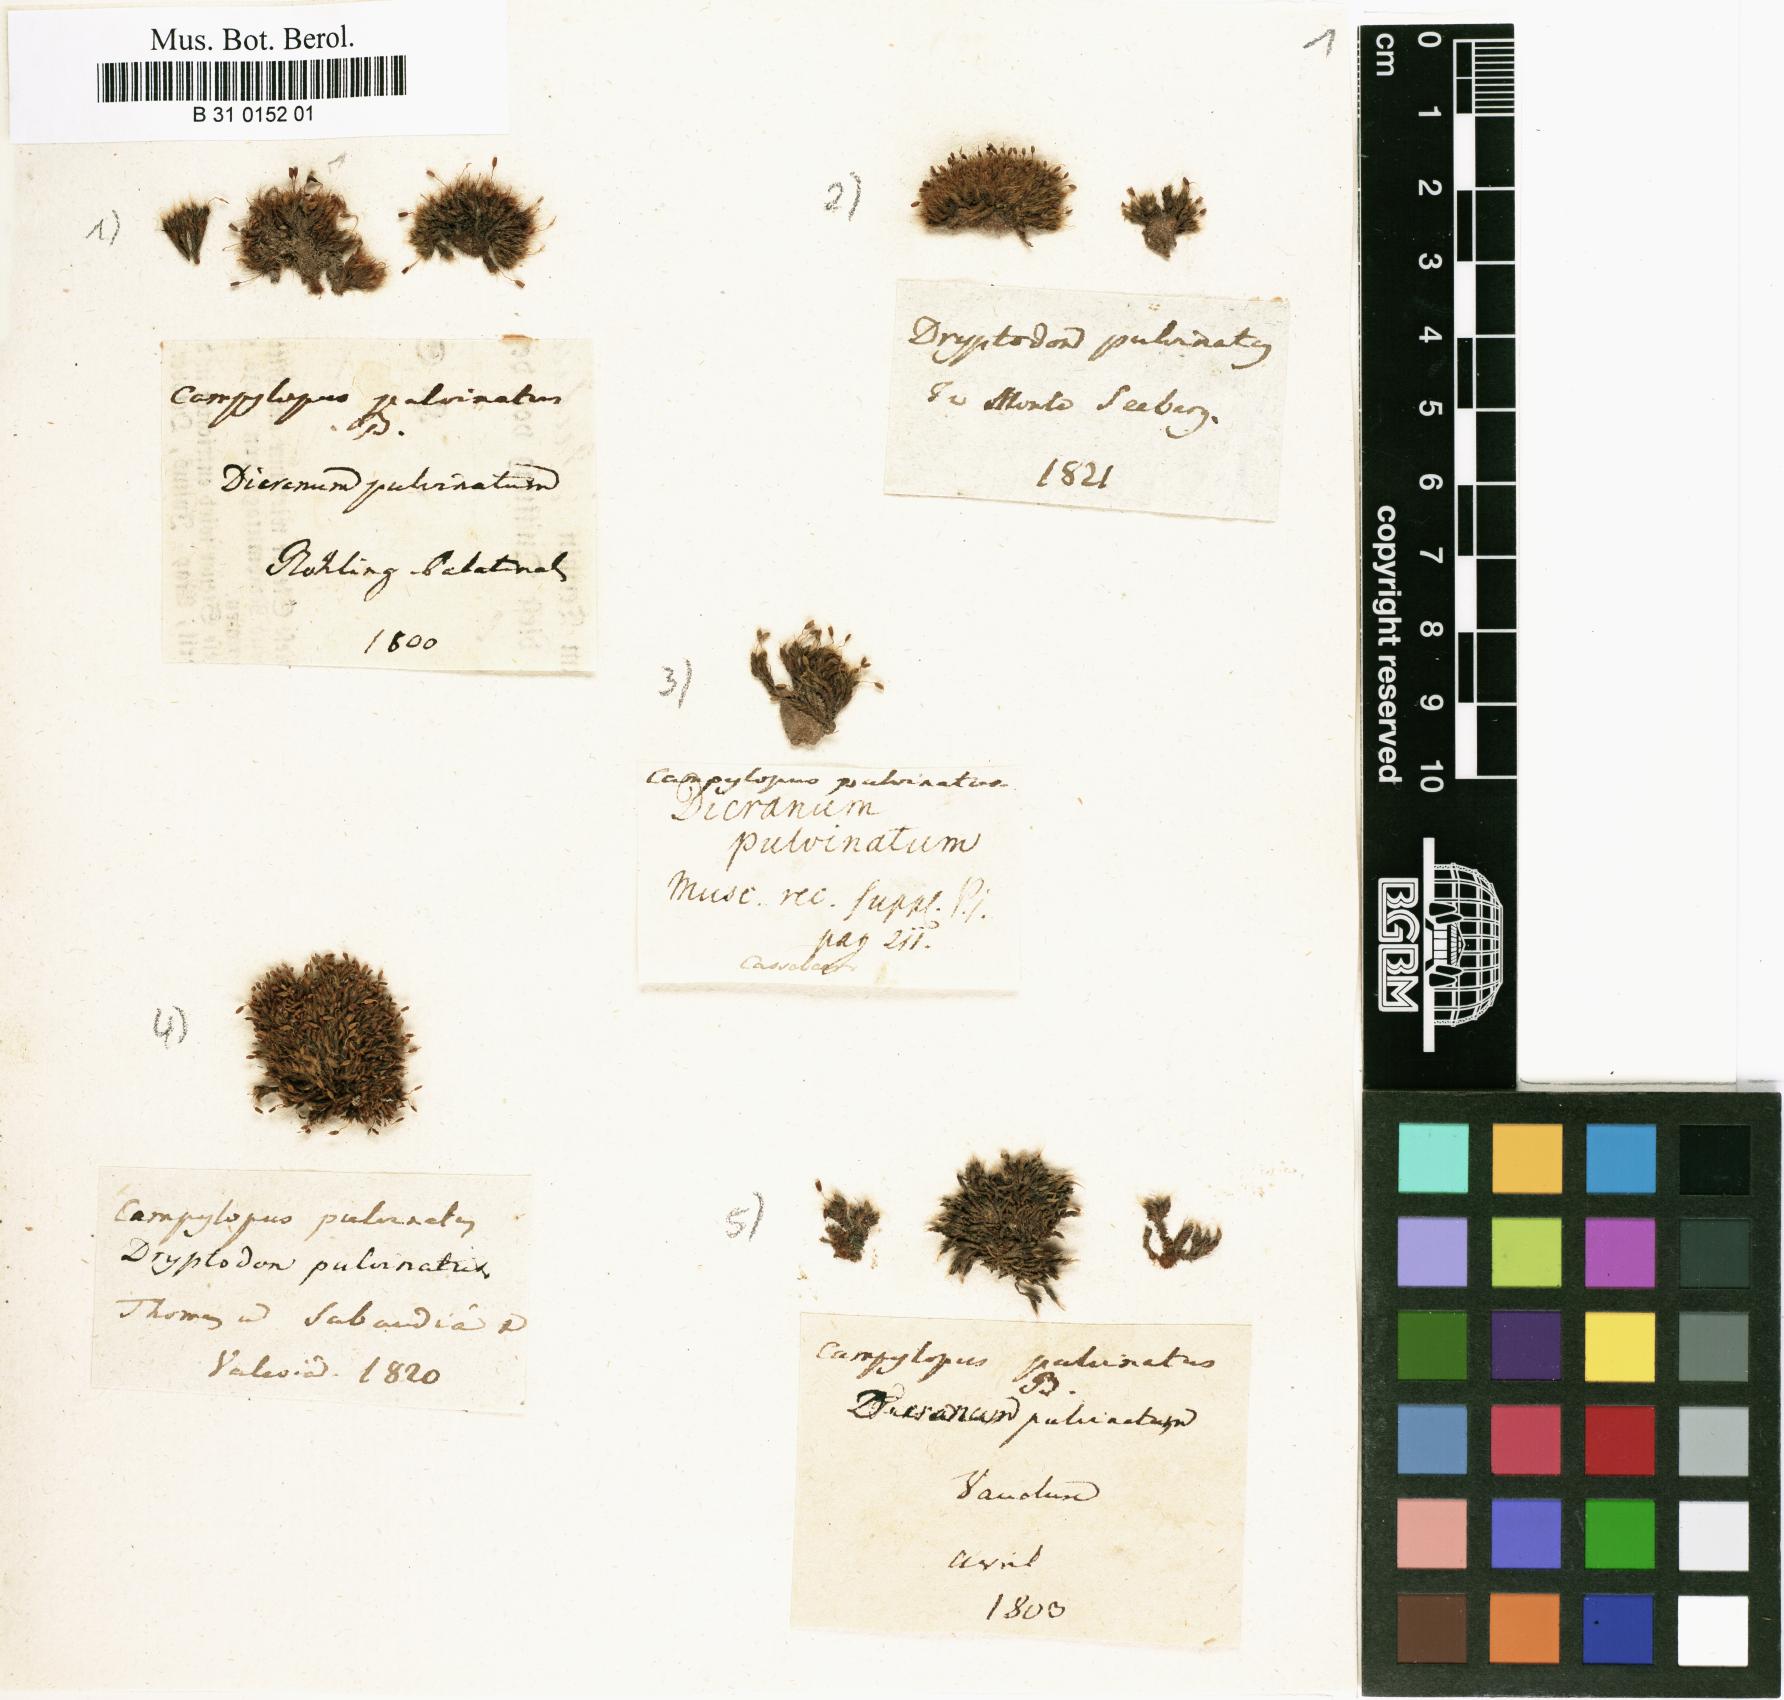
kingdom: Plantae
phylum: Bryophyta
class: Bryopsida
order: Grimmiales
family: Grimmiaceae
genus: Grimmia
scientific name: Grimmia pulvinata
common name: Grey-cushioned grimmia
